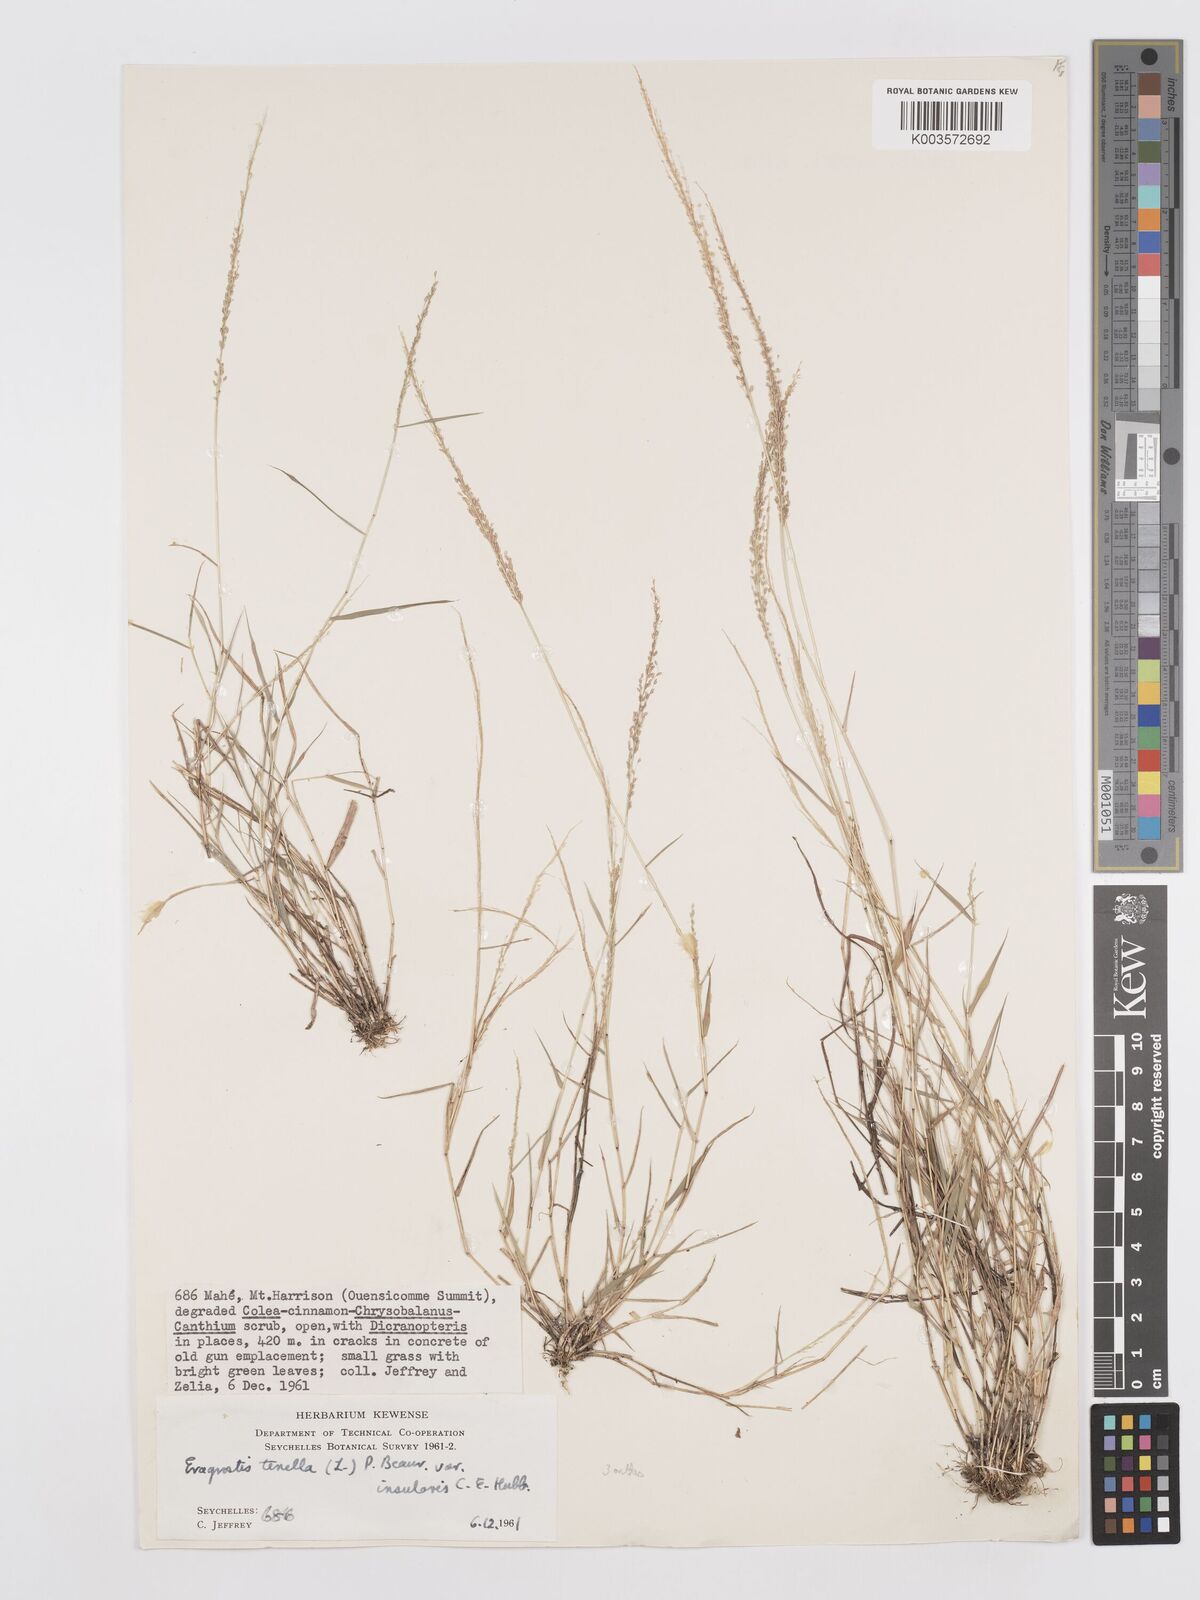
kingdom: Plantae
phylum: Tracheophyta
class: Liliopsida
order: Poales
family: Poaceae
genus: Eragrostis
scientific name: Eragrostis tenella
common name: Japanese lovegrass
